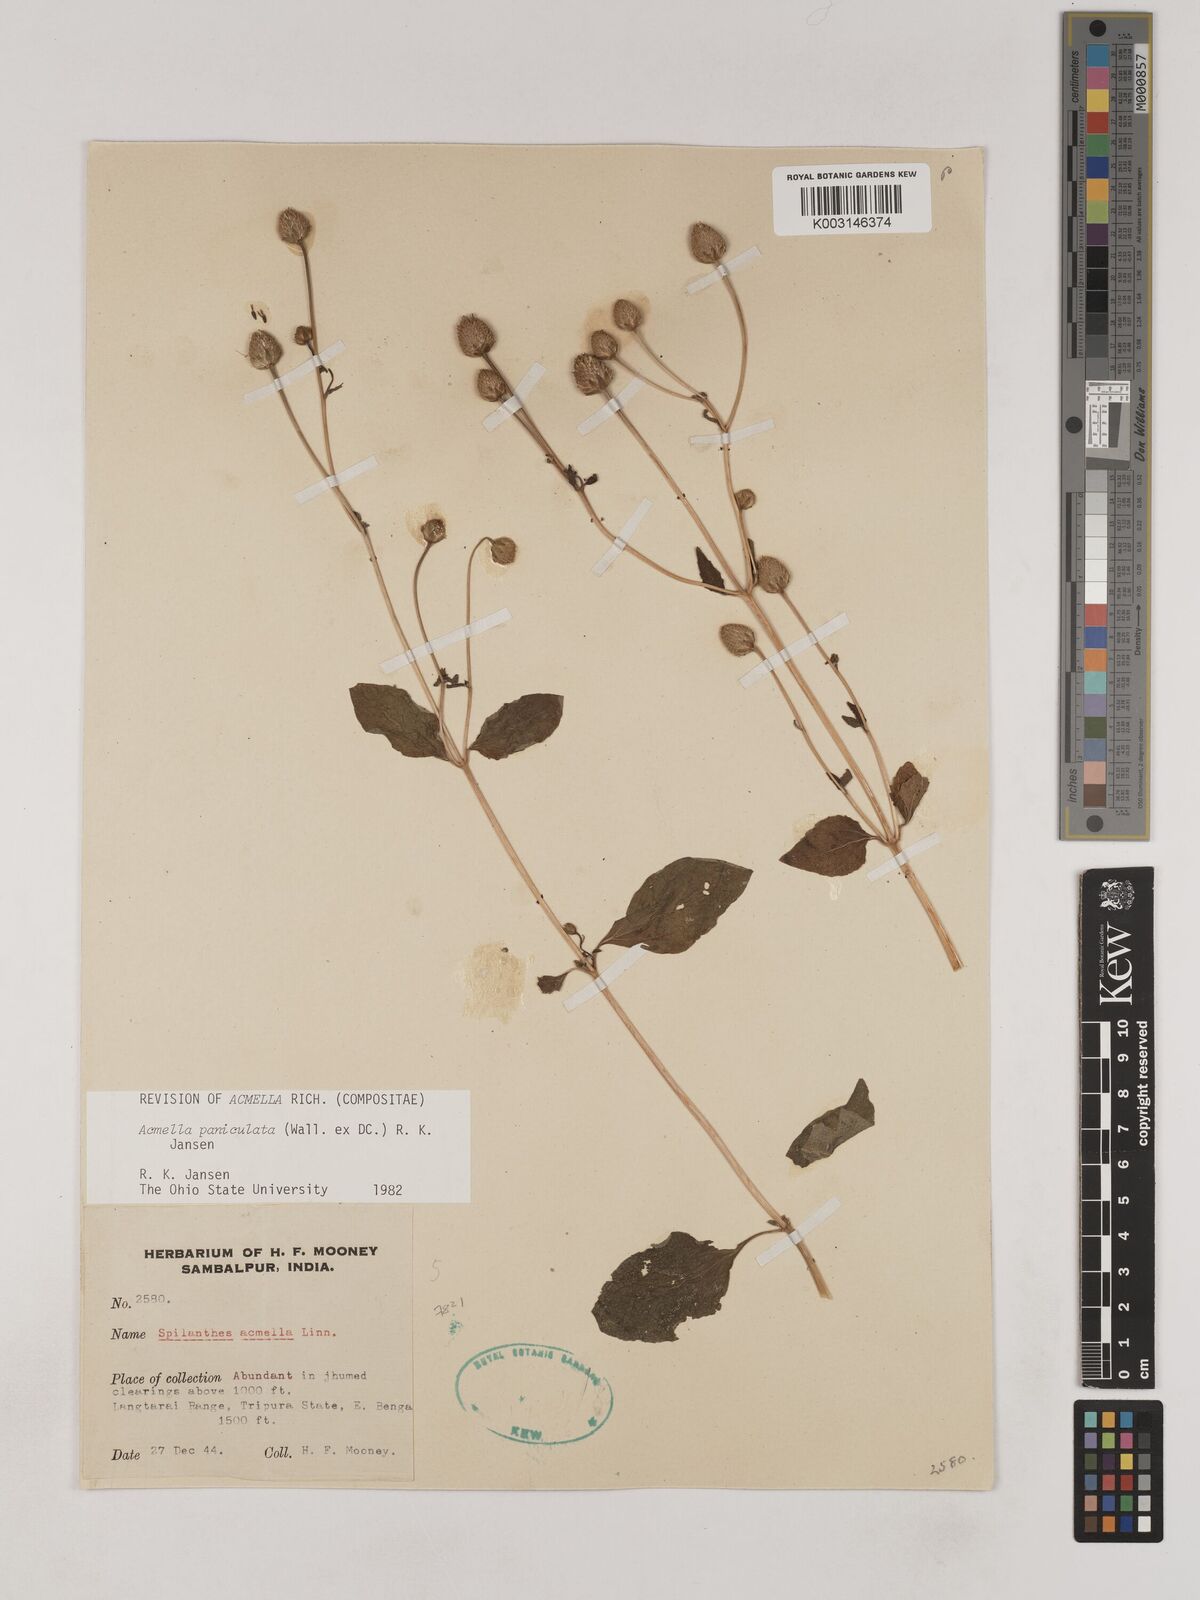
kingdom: Plantae
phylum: Tracheophyta
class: Magnoliopsida
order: Asterales
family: Asteraceae
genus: Acmella
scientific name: Acmella paniculata
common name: Panicled spot flower
